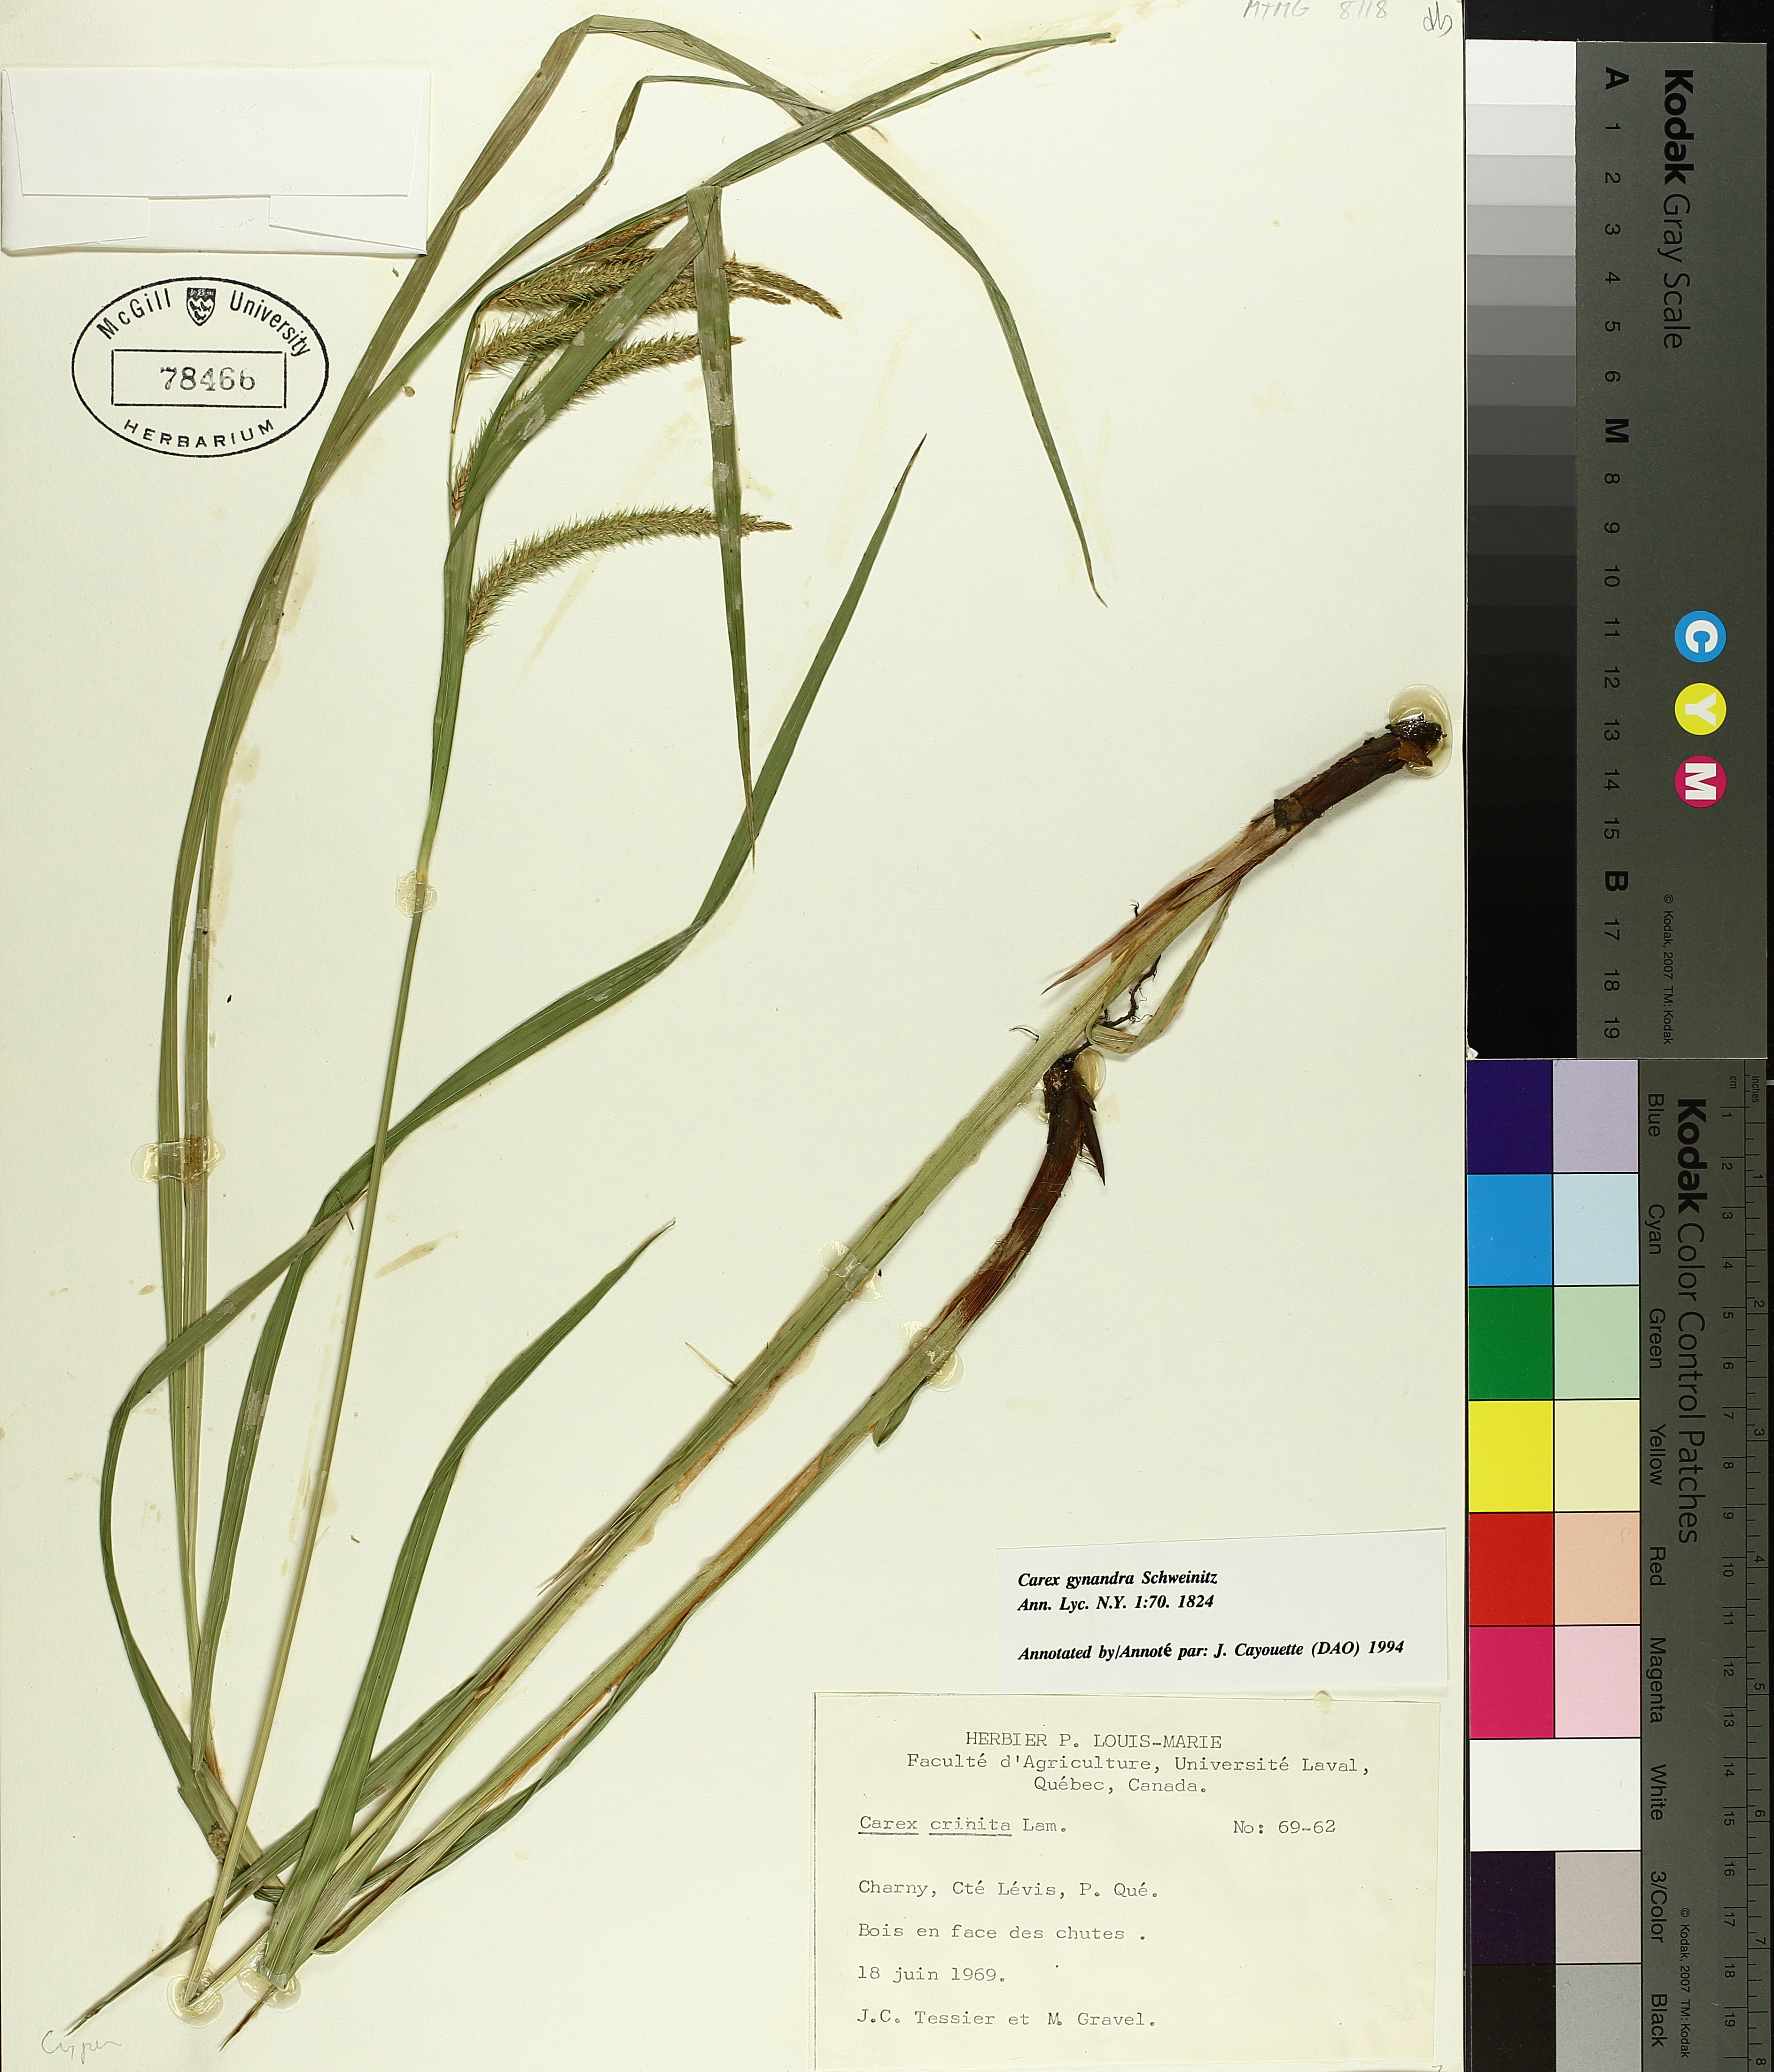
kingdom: Plantae
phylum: Tracheophyta
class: Liliopsida
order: Poales
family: Cyperaceae
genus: Carex
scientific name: Carex gynandra
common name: Nodding sedge
